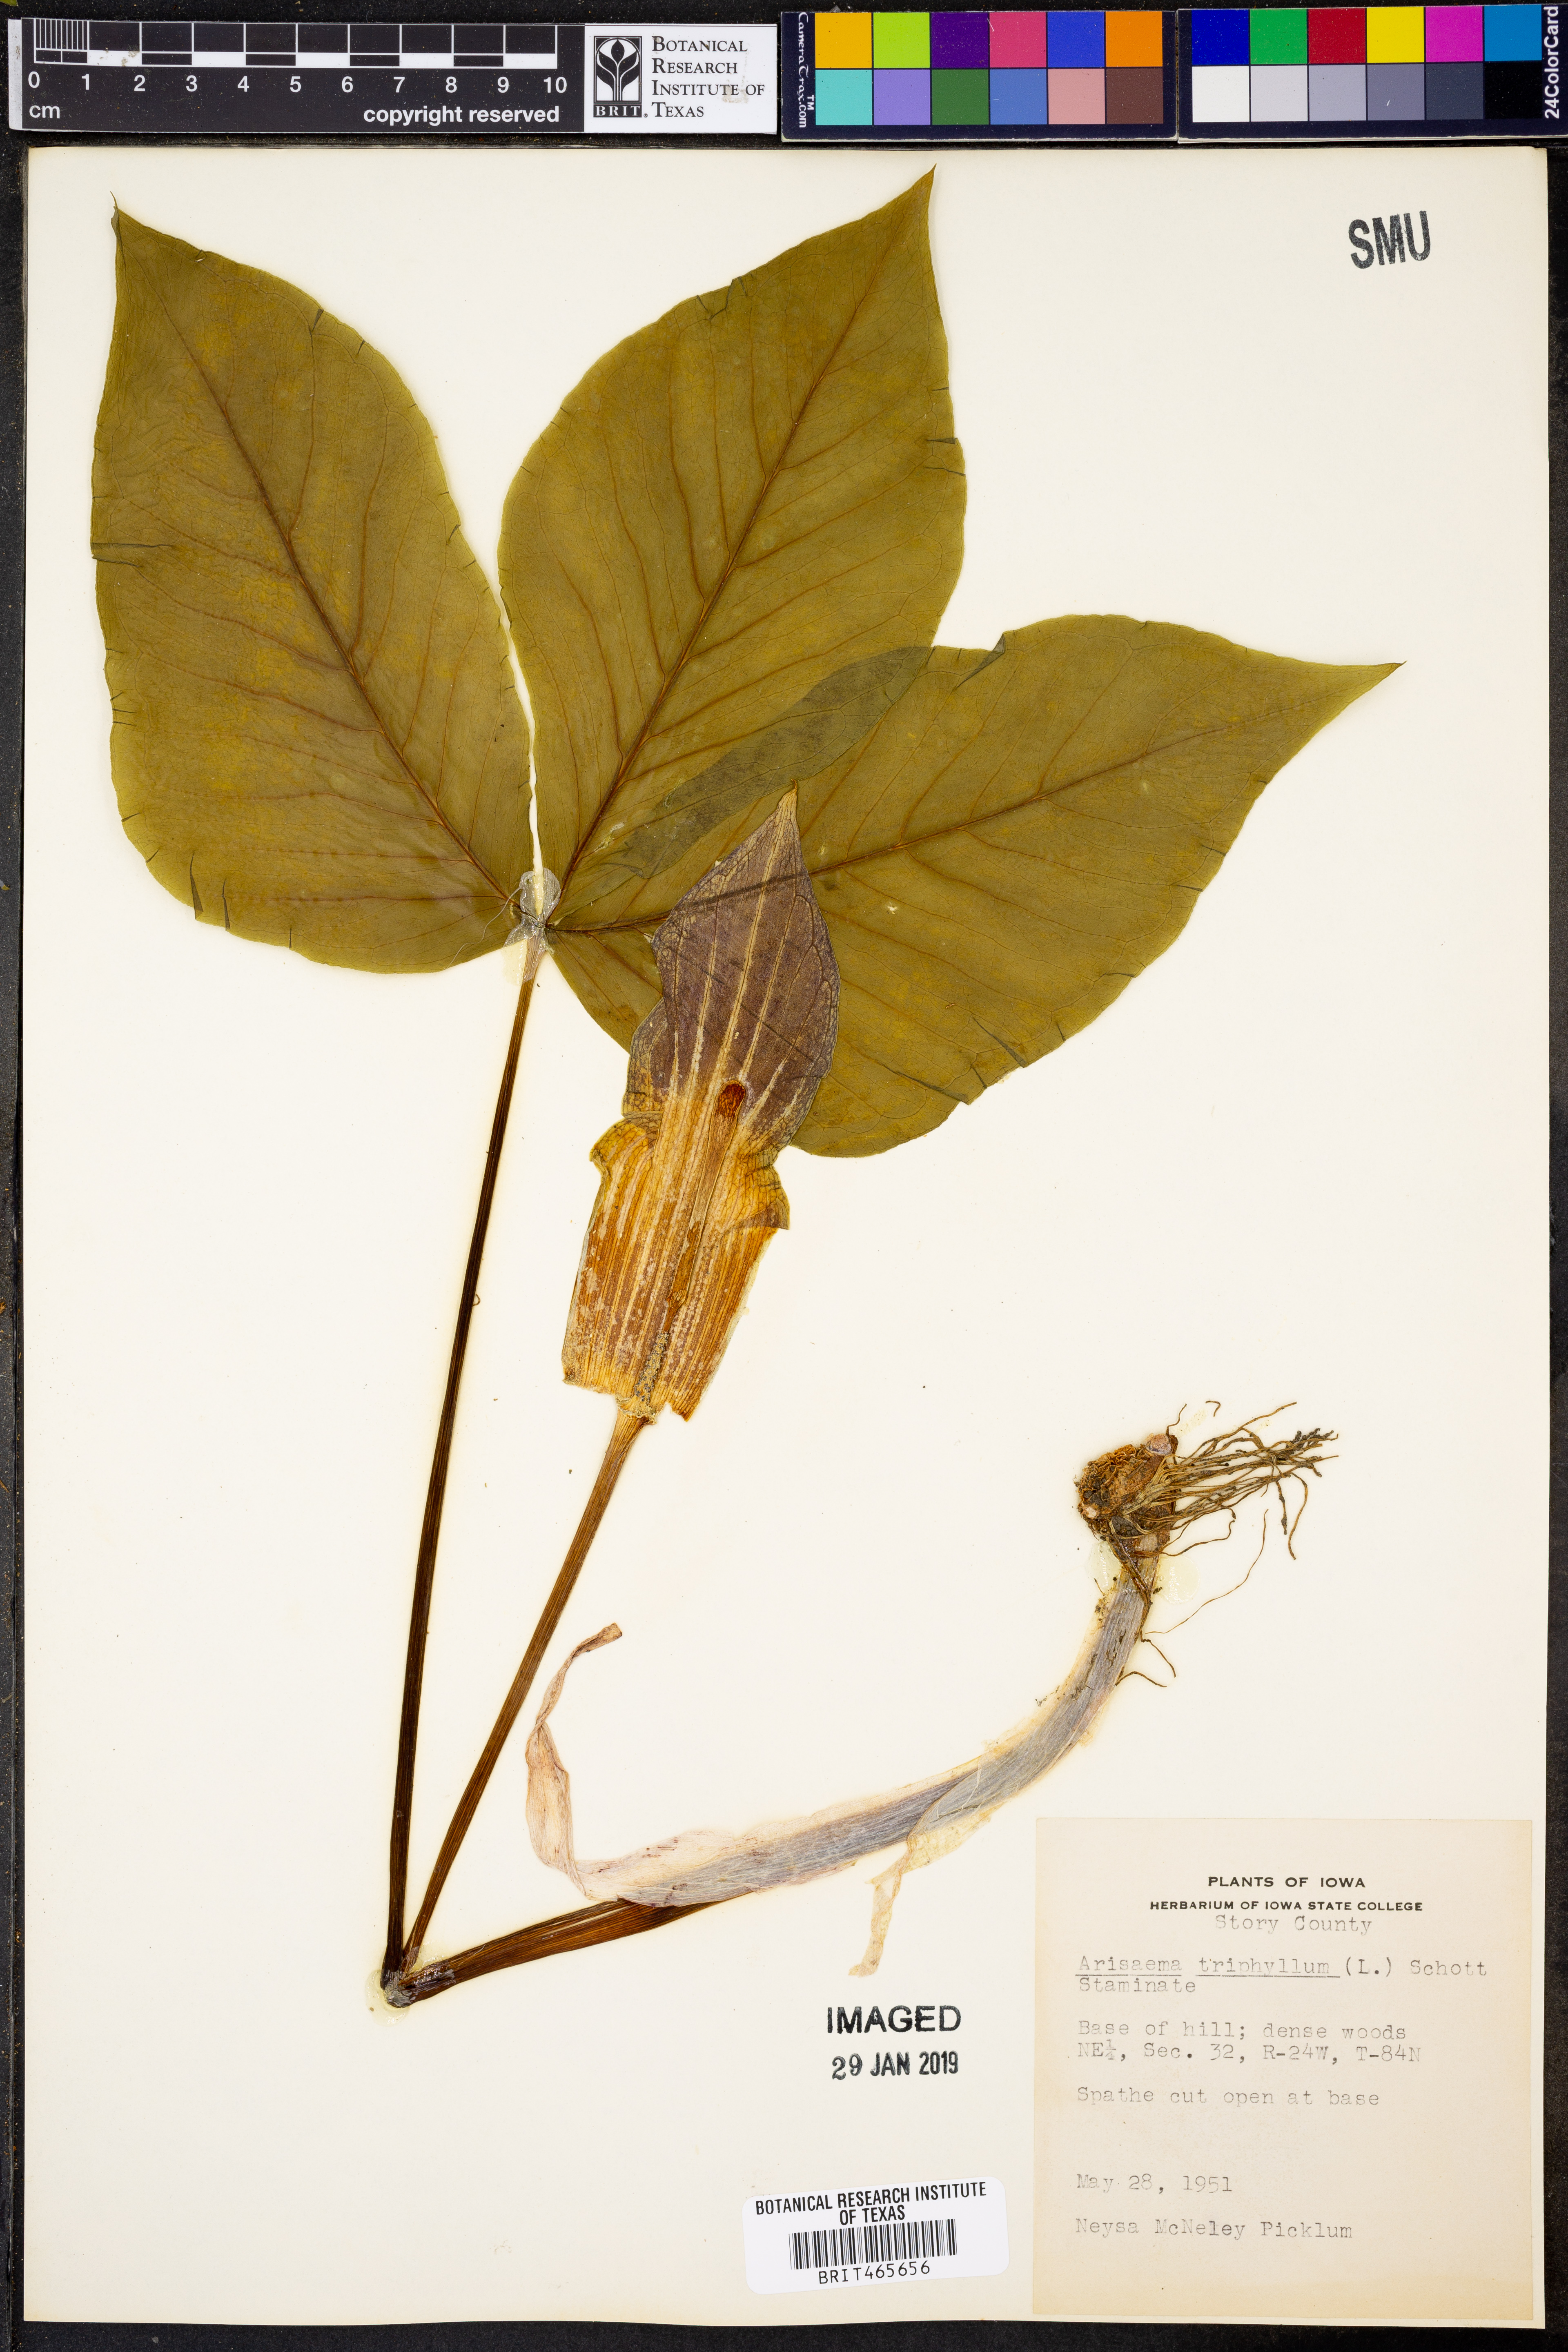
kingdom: Plantae
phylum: Tracheophyta
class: Liliopsida
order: Alismatales
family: Araceae
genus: Arisaema
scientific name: Arisaema triphyllum
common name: Jack-in-the-pulpit
